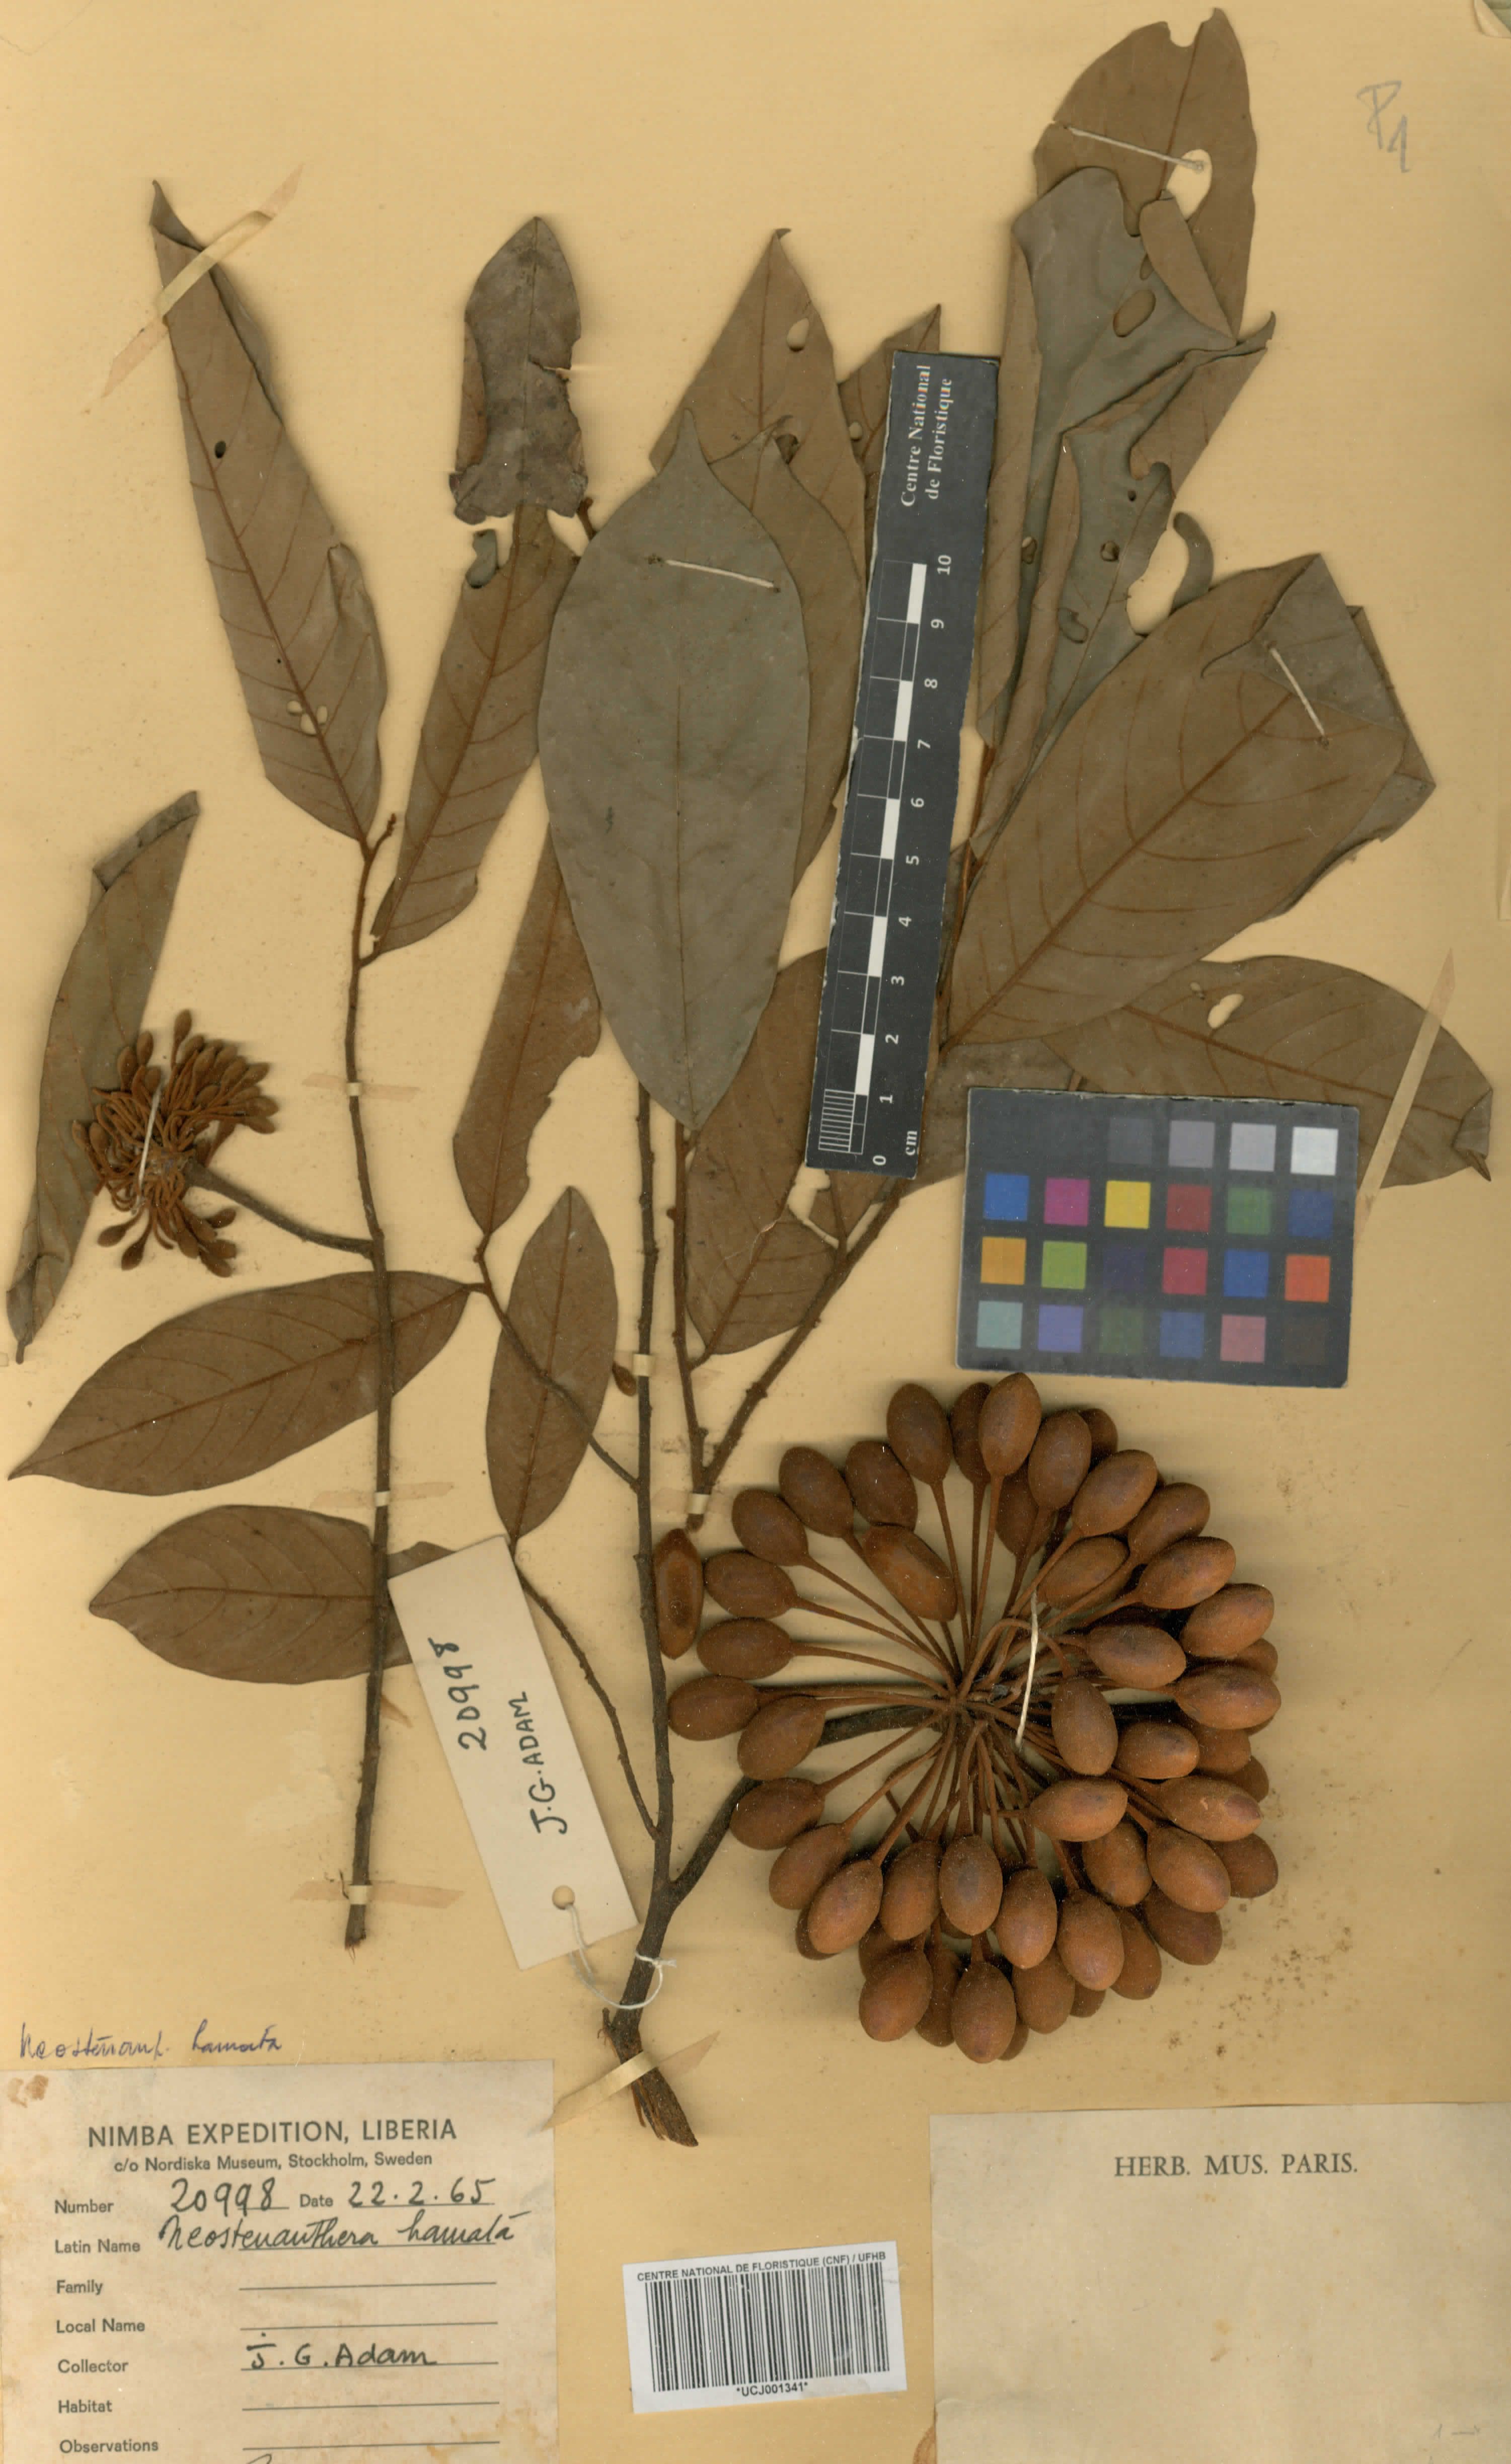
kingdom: Plantae
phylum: Tracheophyta
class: Magnoliopsida
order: Magnoliales
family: Annonaceae
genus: Neostenanthera
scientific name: Neostenanthera hamata
